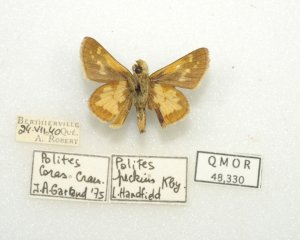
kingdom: Animalia
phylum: Arthropoda
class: Insecta
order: Lepidoptera
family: Hesperiidae
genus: Polites
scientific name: Polites coras
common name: Peck's Skipper
